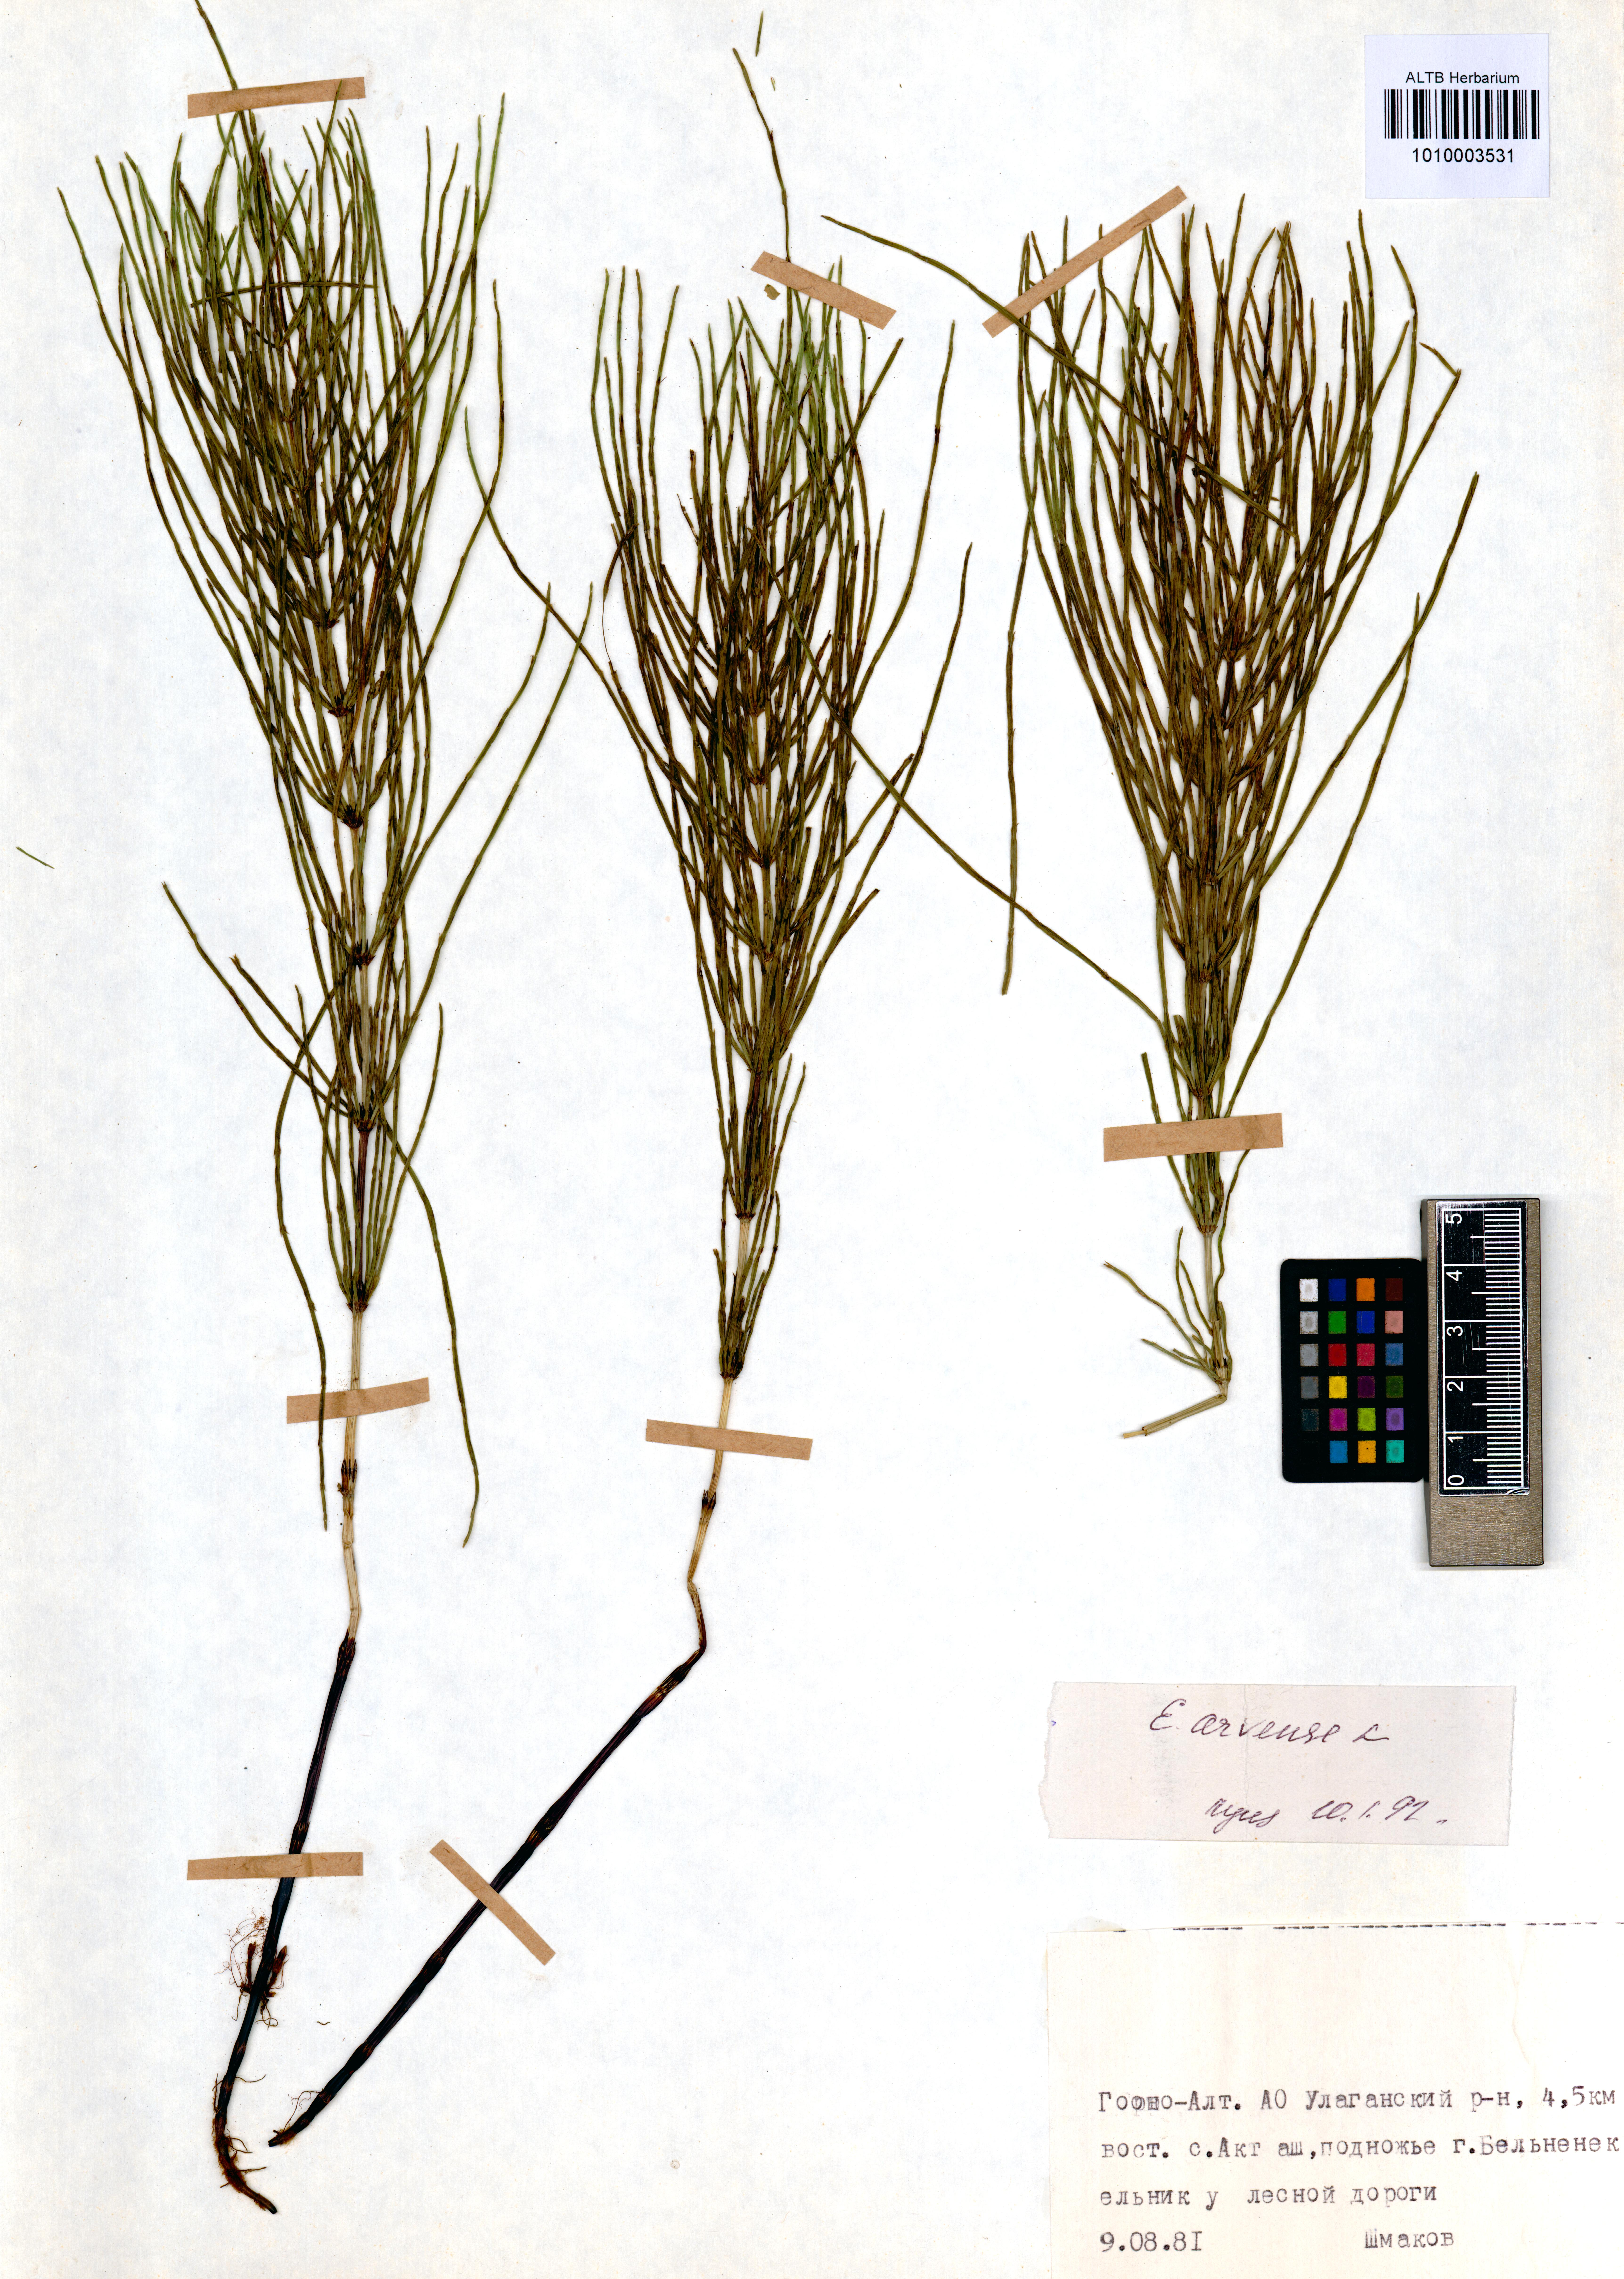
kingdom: Plantae
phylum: Tracheophyta
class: Polypodiopsida
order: Equisetales
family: Equisetaceae
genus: Equisetum
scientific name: Equisetum arvense
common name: Field horsetail
